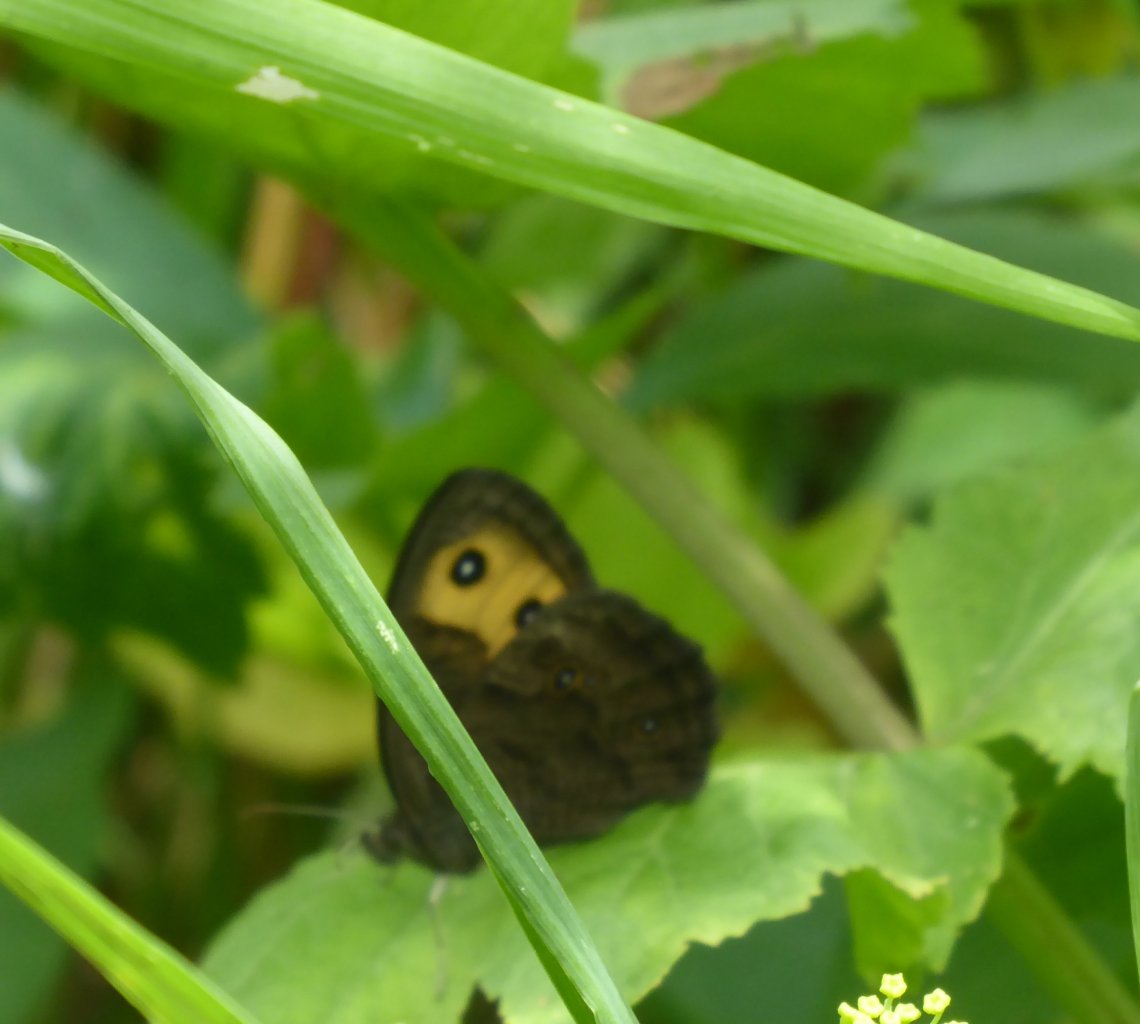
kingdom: Animalia
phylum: Arthropoda
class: Insecta
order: Lepidoptera
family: Nymphalidae
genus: Cercyonis
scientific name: Cercyonis pegala
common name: Common Wood-Nymph
